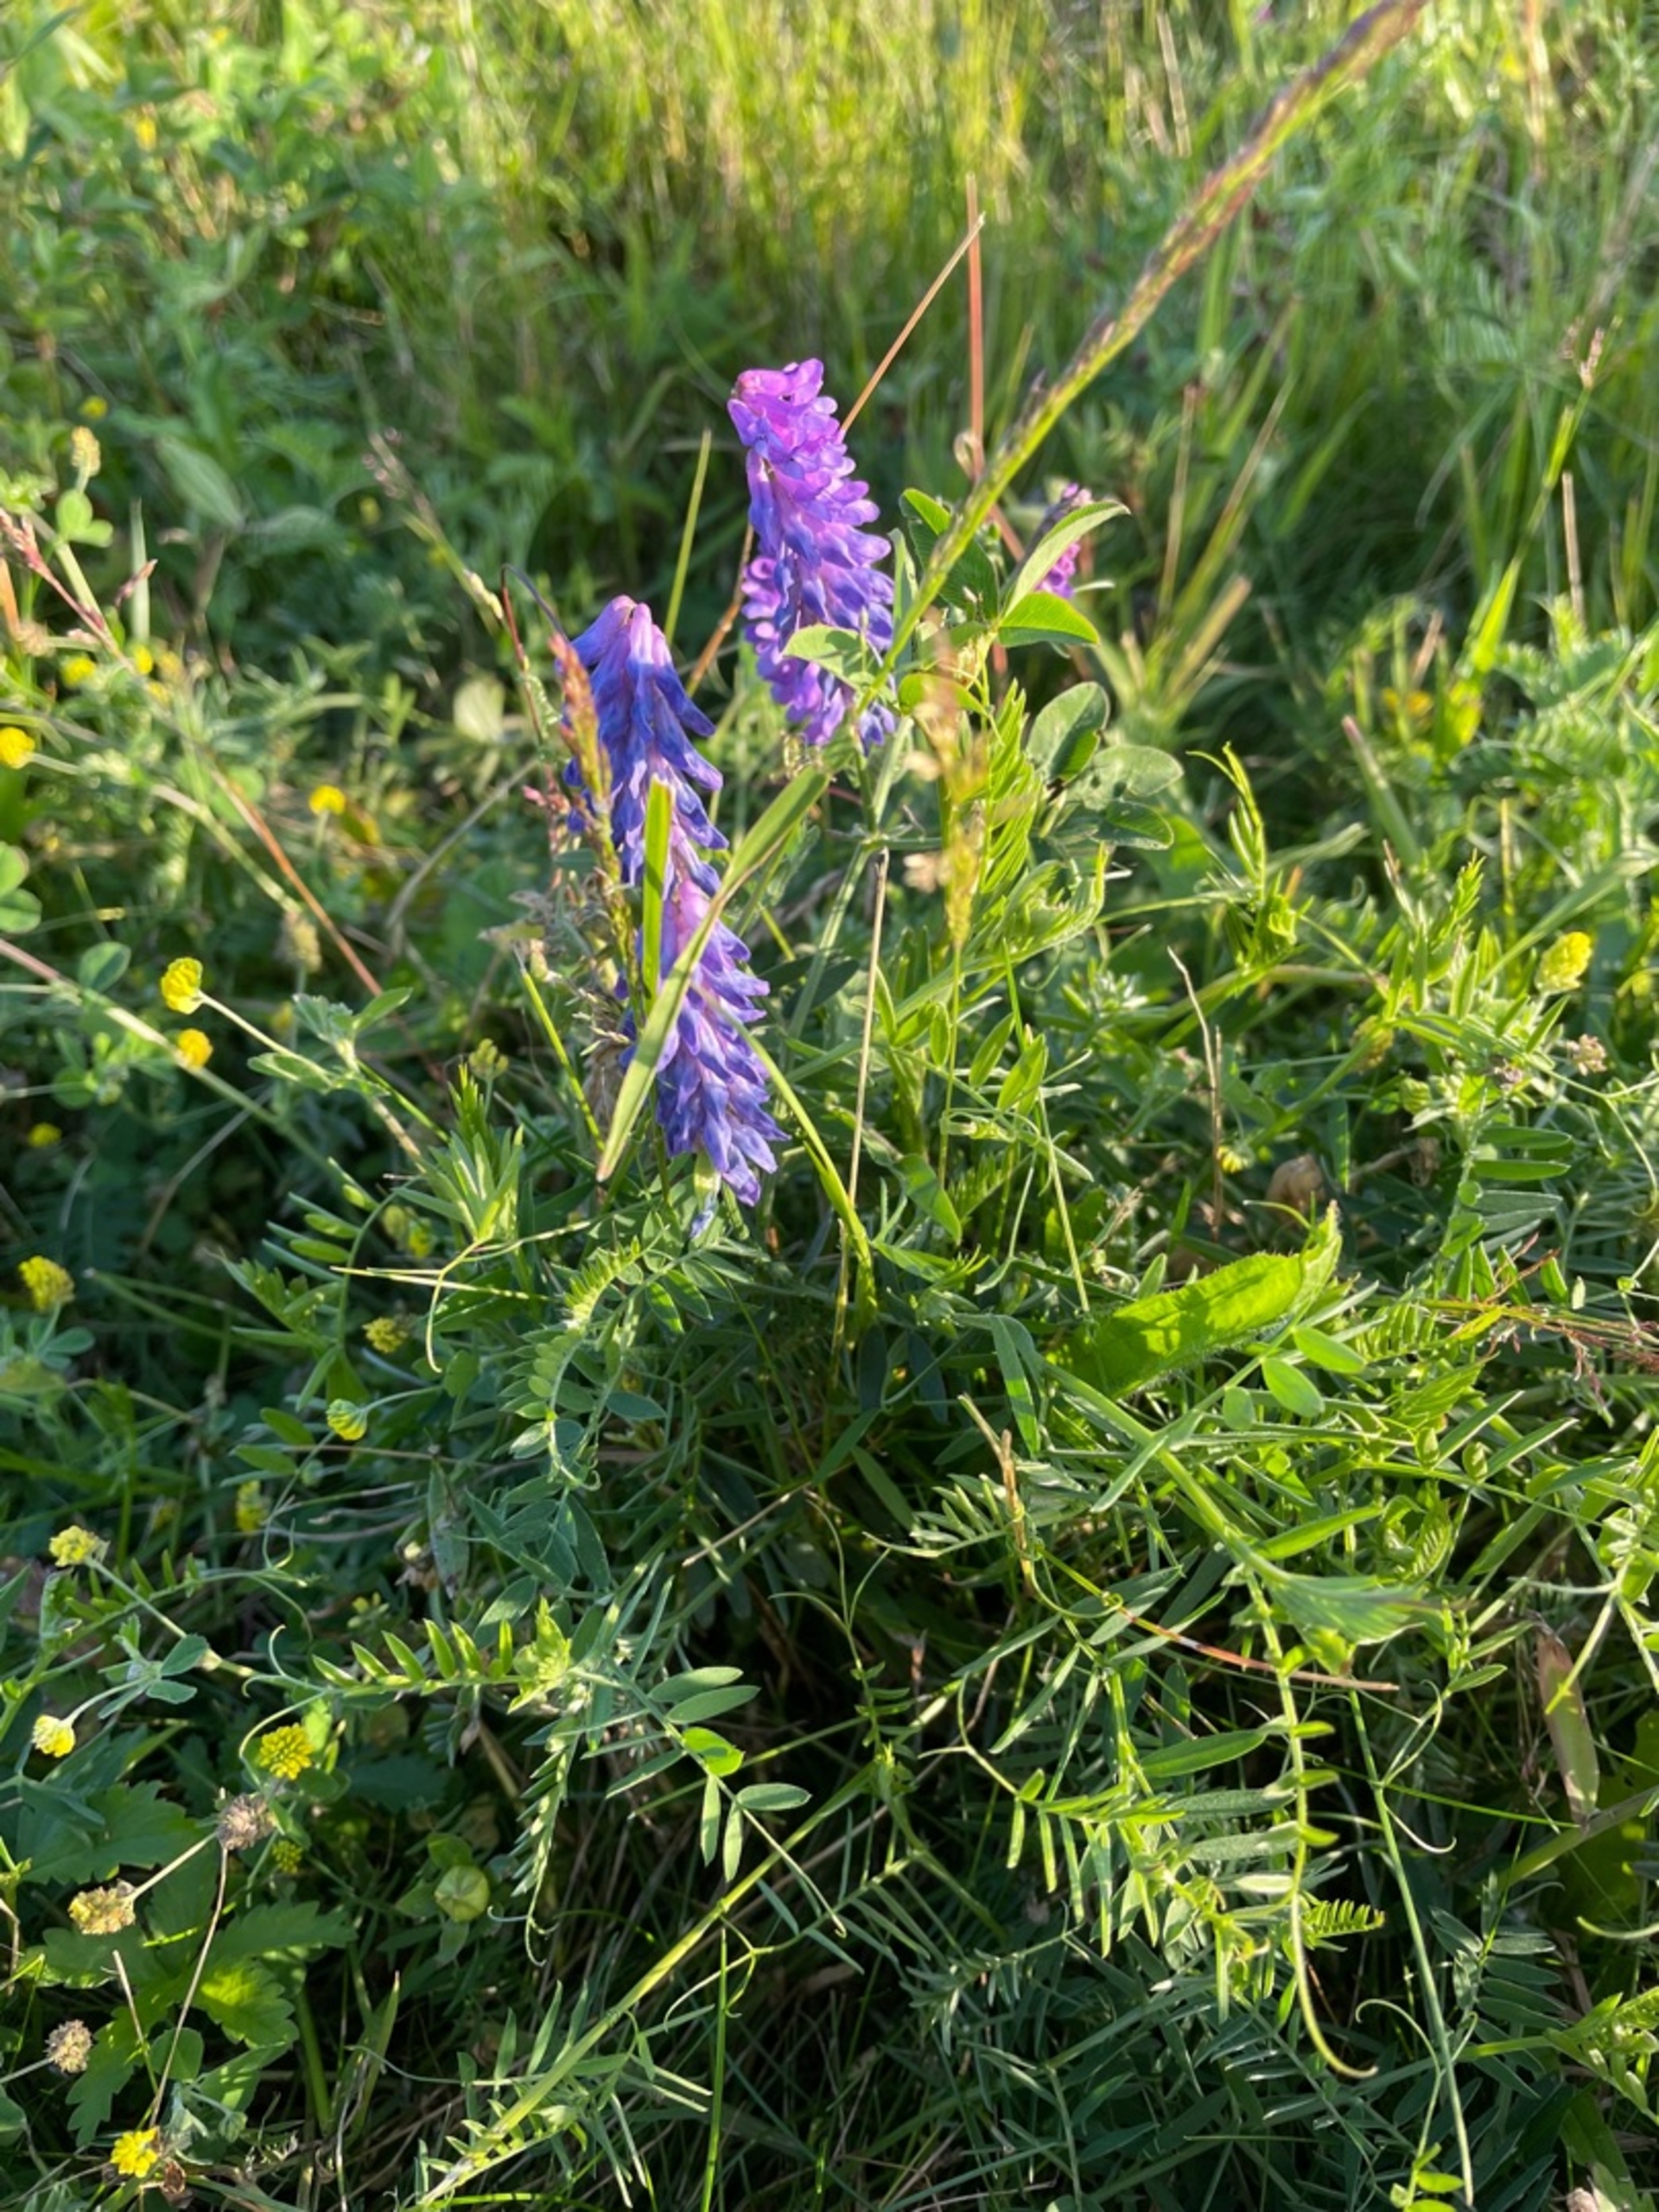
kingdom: Plantae
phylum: Tracheophyta
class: Magnoliopsida
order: Fabales
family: Fabaceae
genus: Vicia
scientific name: Vicia cracca
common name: Muse-vikke
